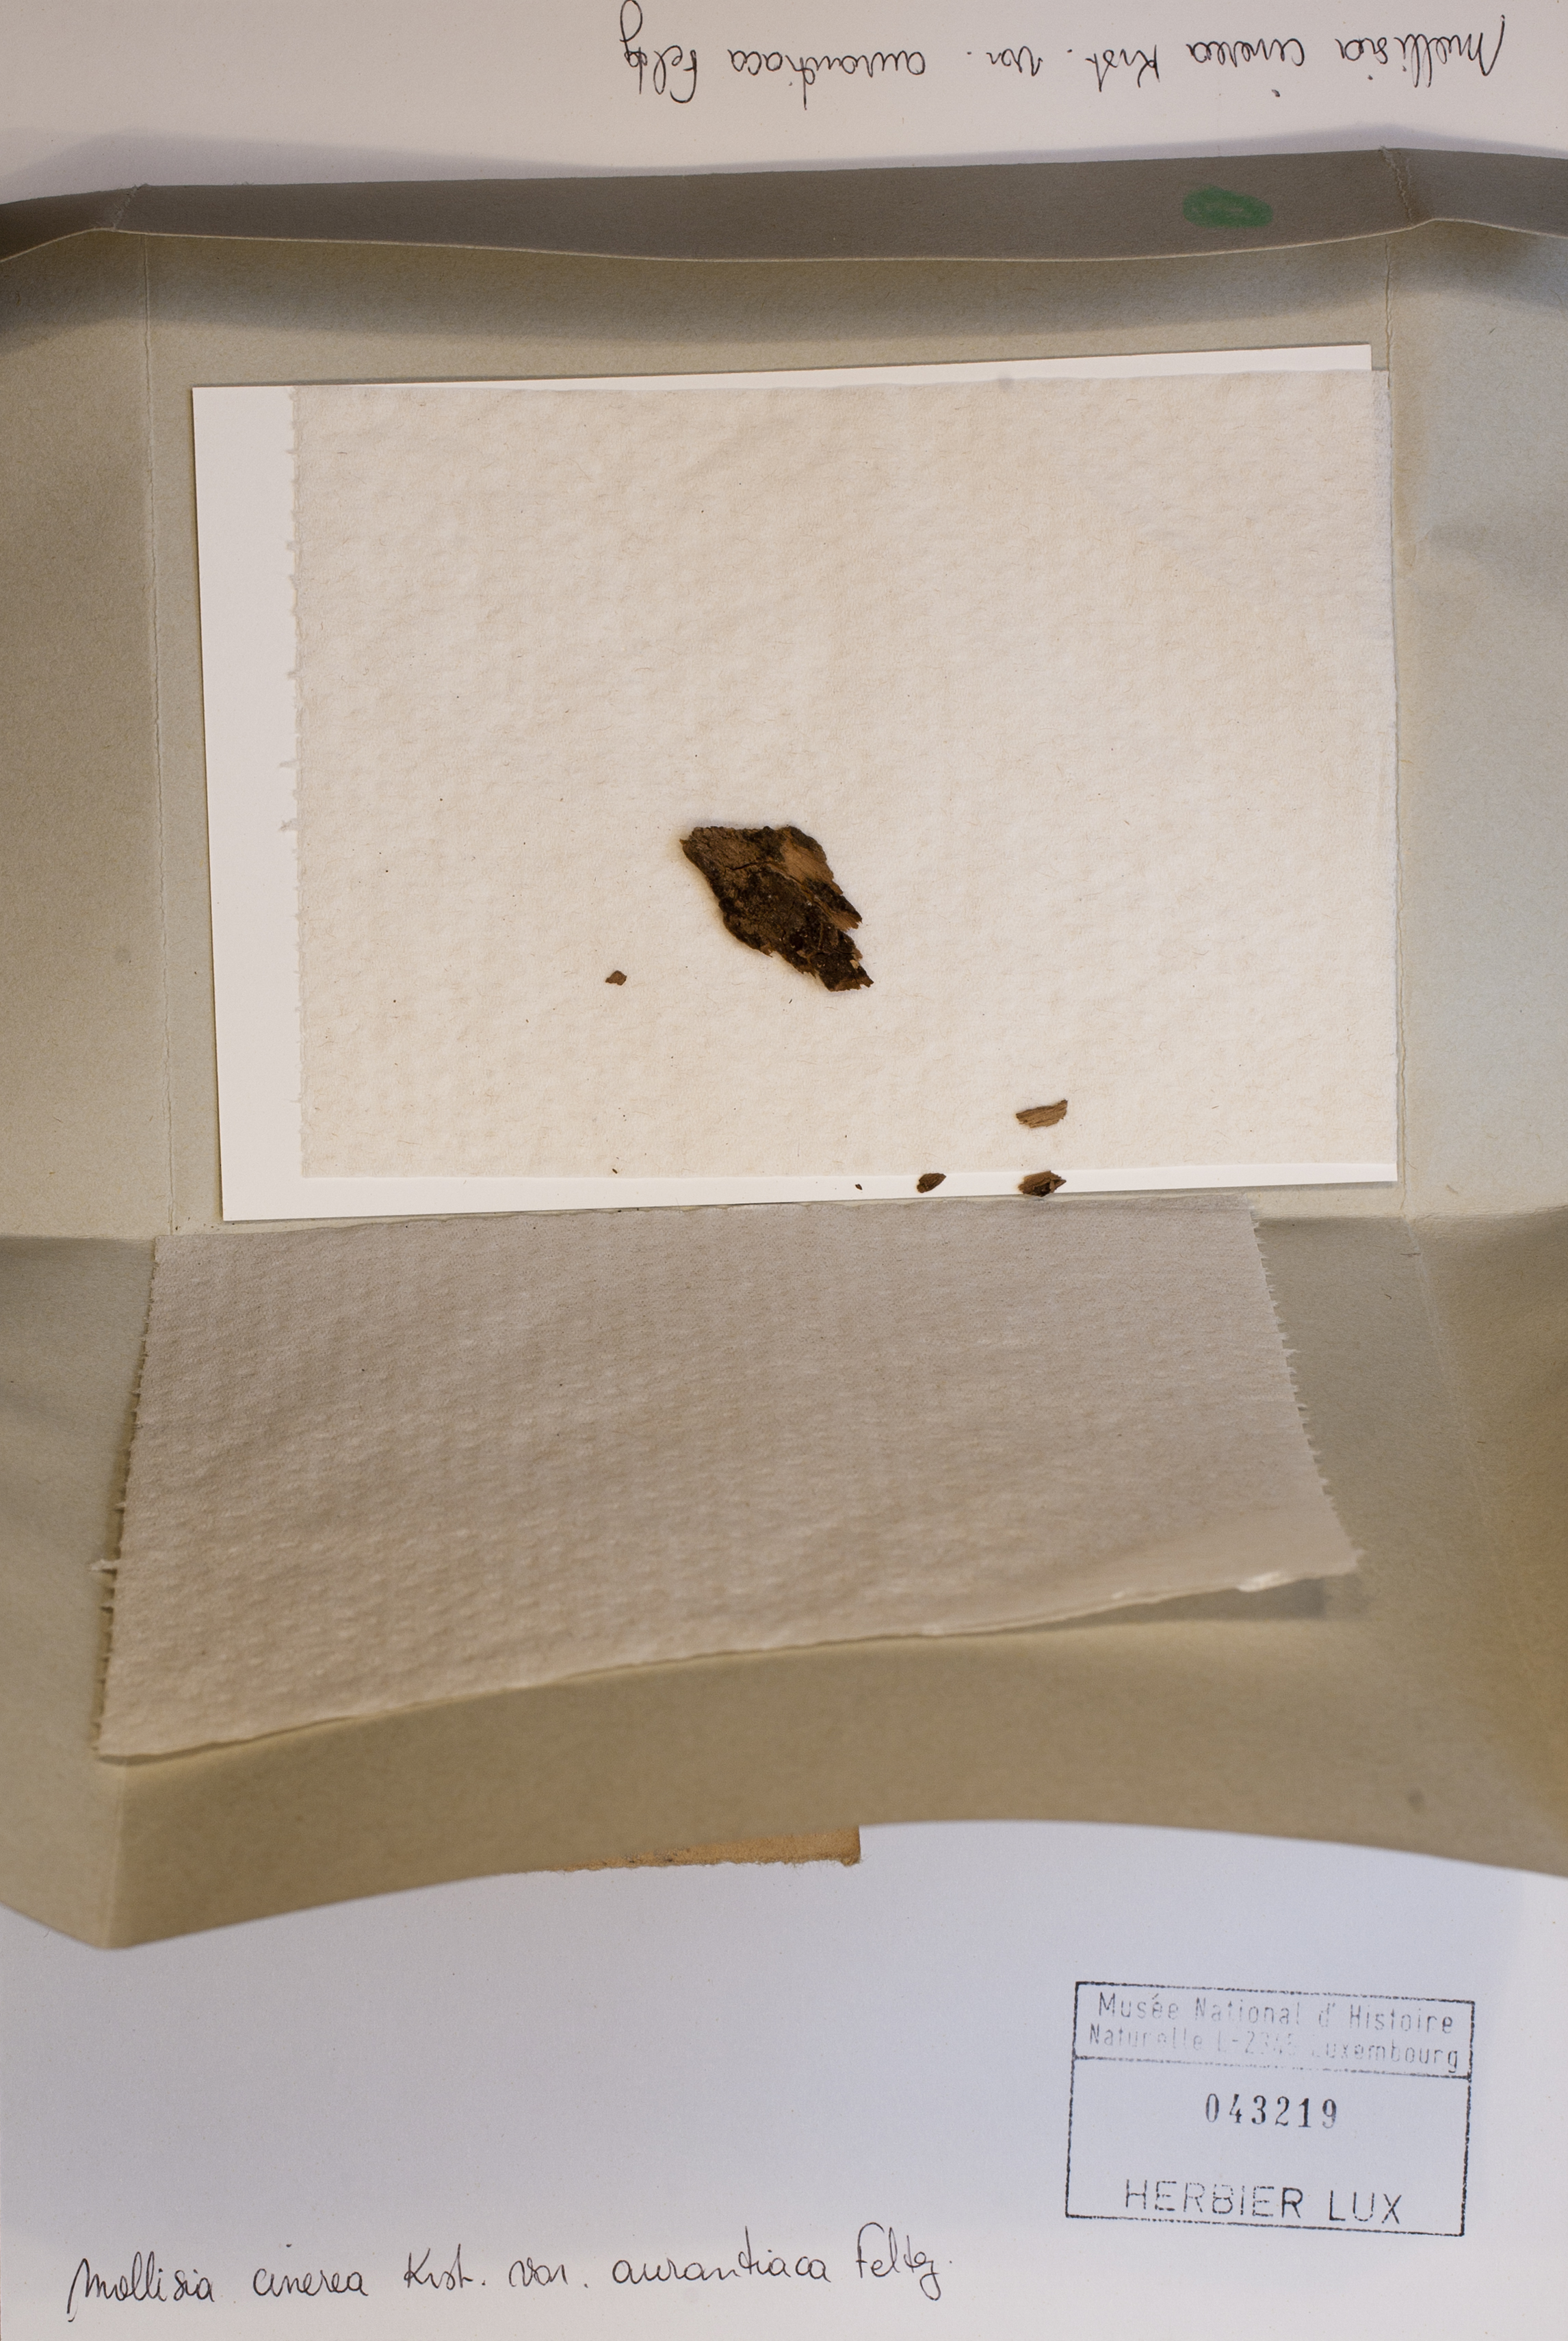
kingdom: Fungi
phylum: Ascomycota
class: Leotiomycetes
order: Helotiales
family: Mollisiaceae
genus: Mollisia
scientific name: Mollisia cinerea
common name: Common grey disco
